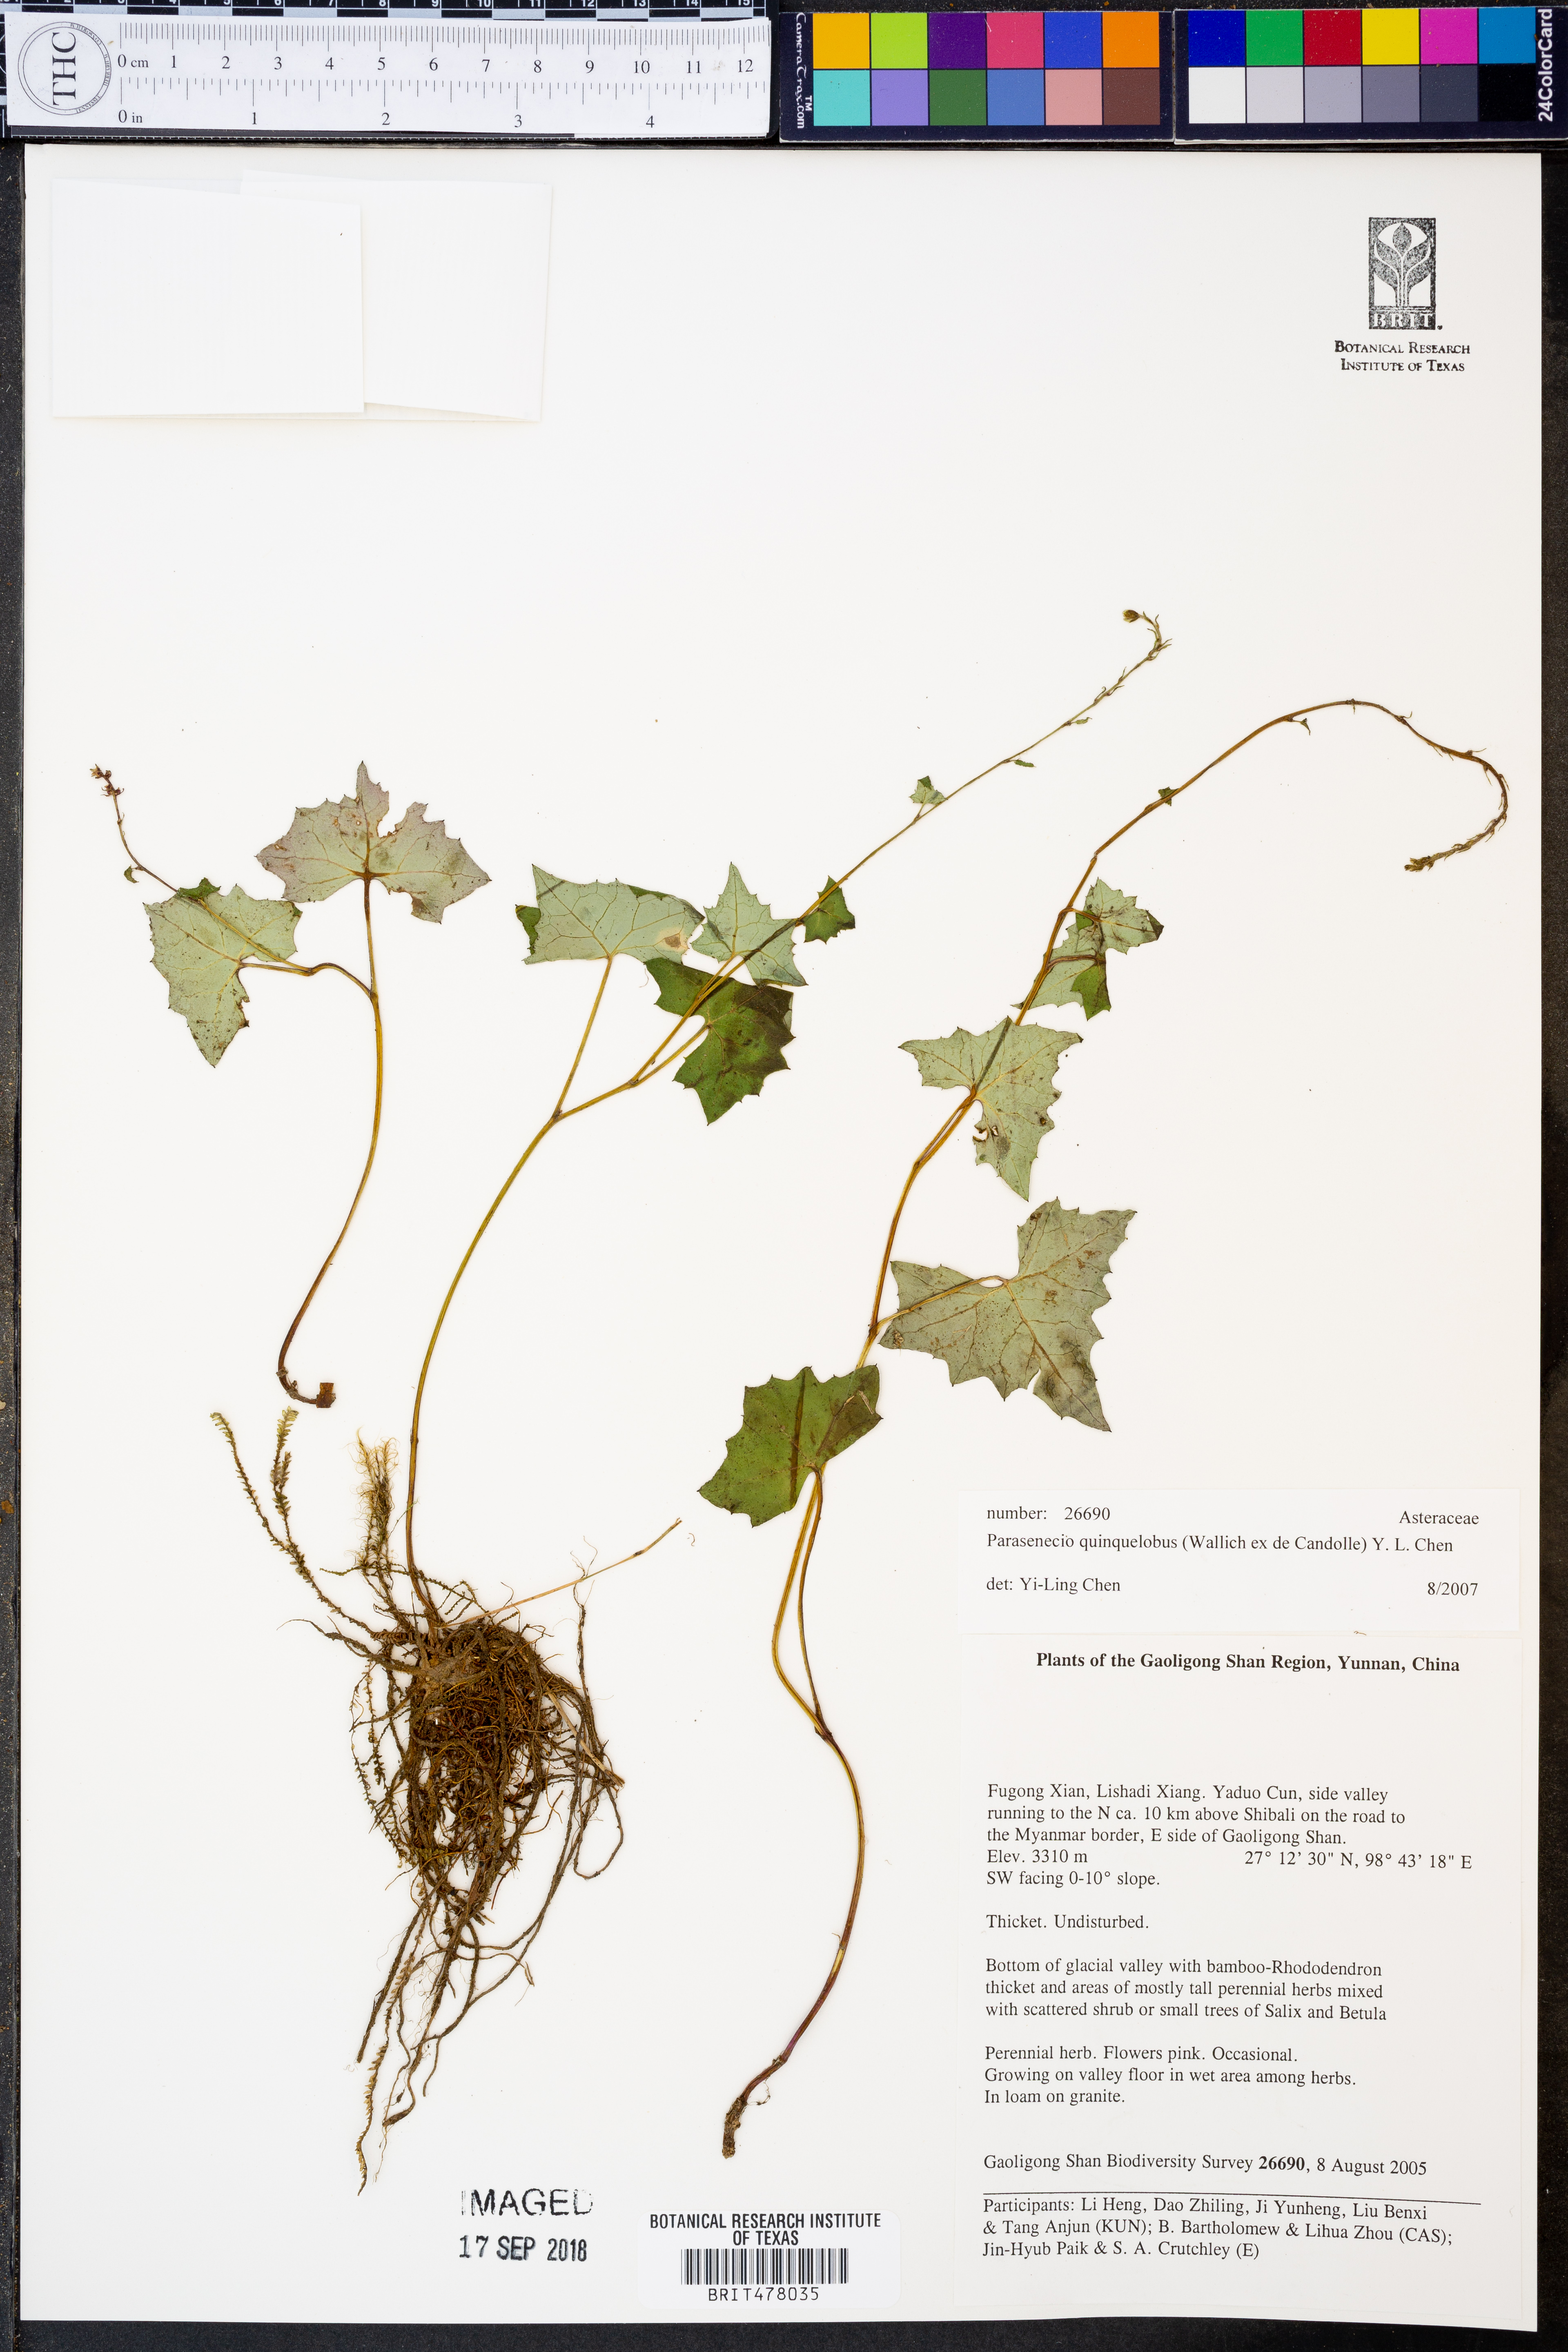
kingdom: Plantae
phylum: Tracheophyta
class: Magnoliopsida
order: Asterales
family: Asteraceae
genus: Parasenecio
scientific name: Parasenecio quinquelobus
